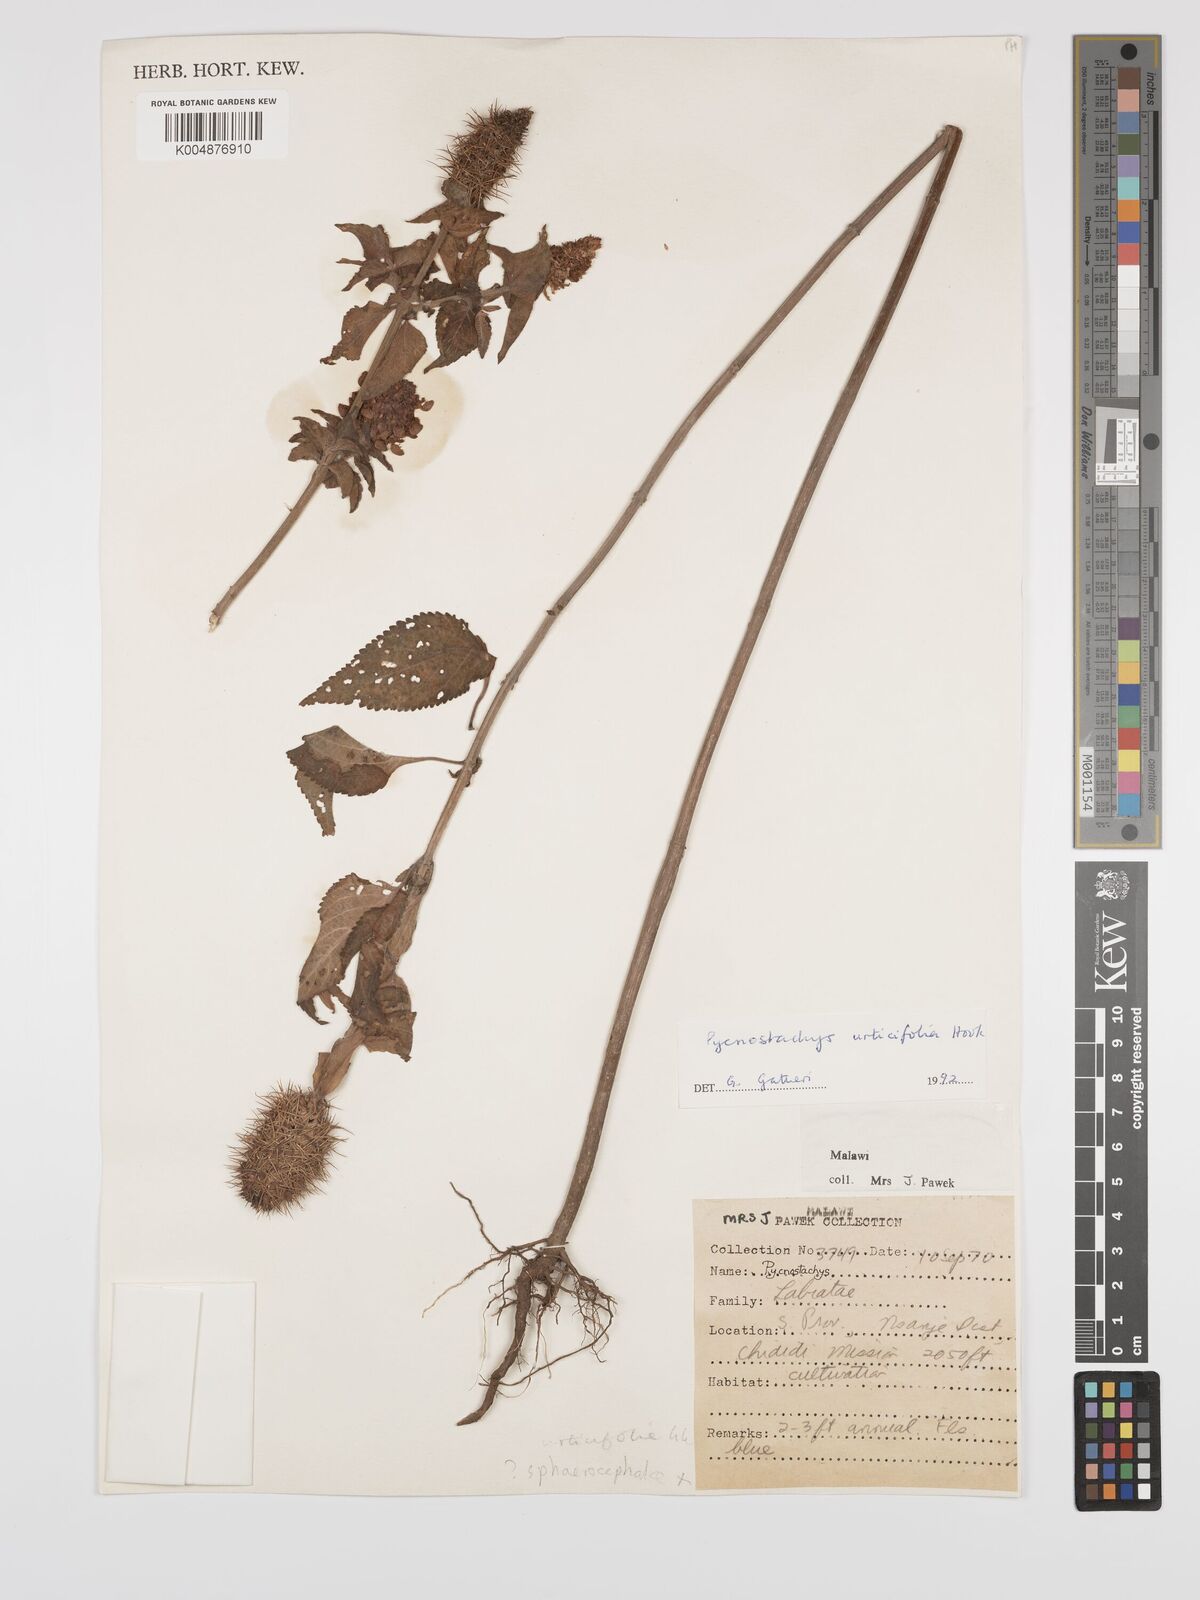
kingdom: Plantae
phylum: Tracheophyta
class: Magnoliopsida
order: Lamiales
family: Lamiaceae
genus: Coleus
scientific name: Coleus livingstonei
